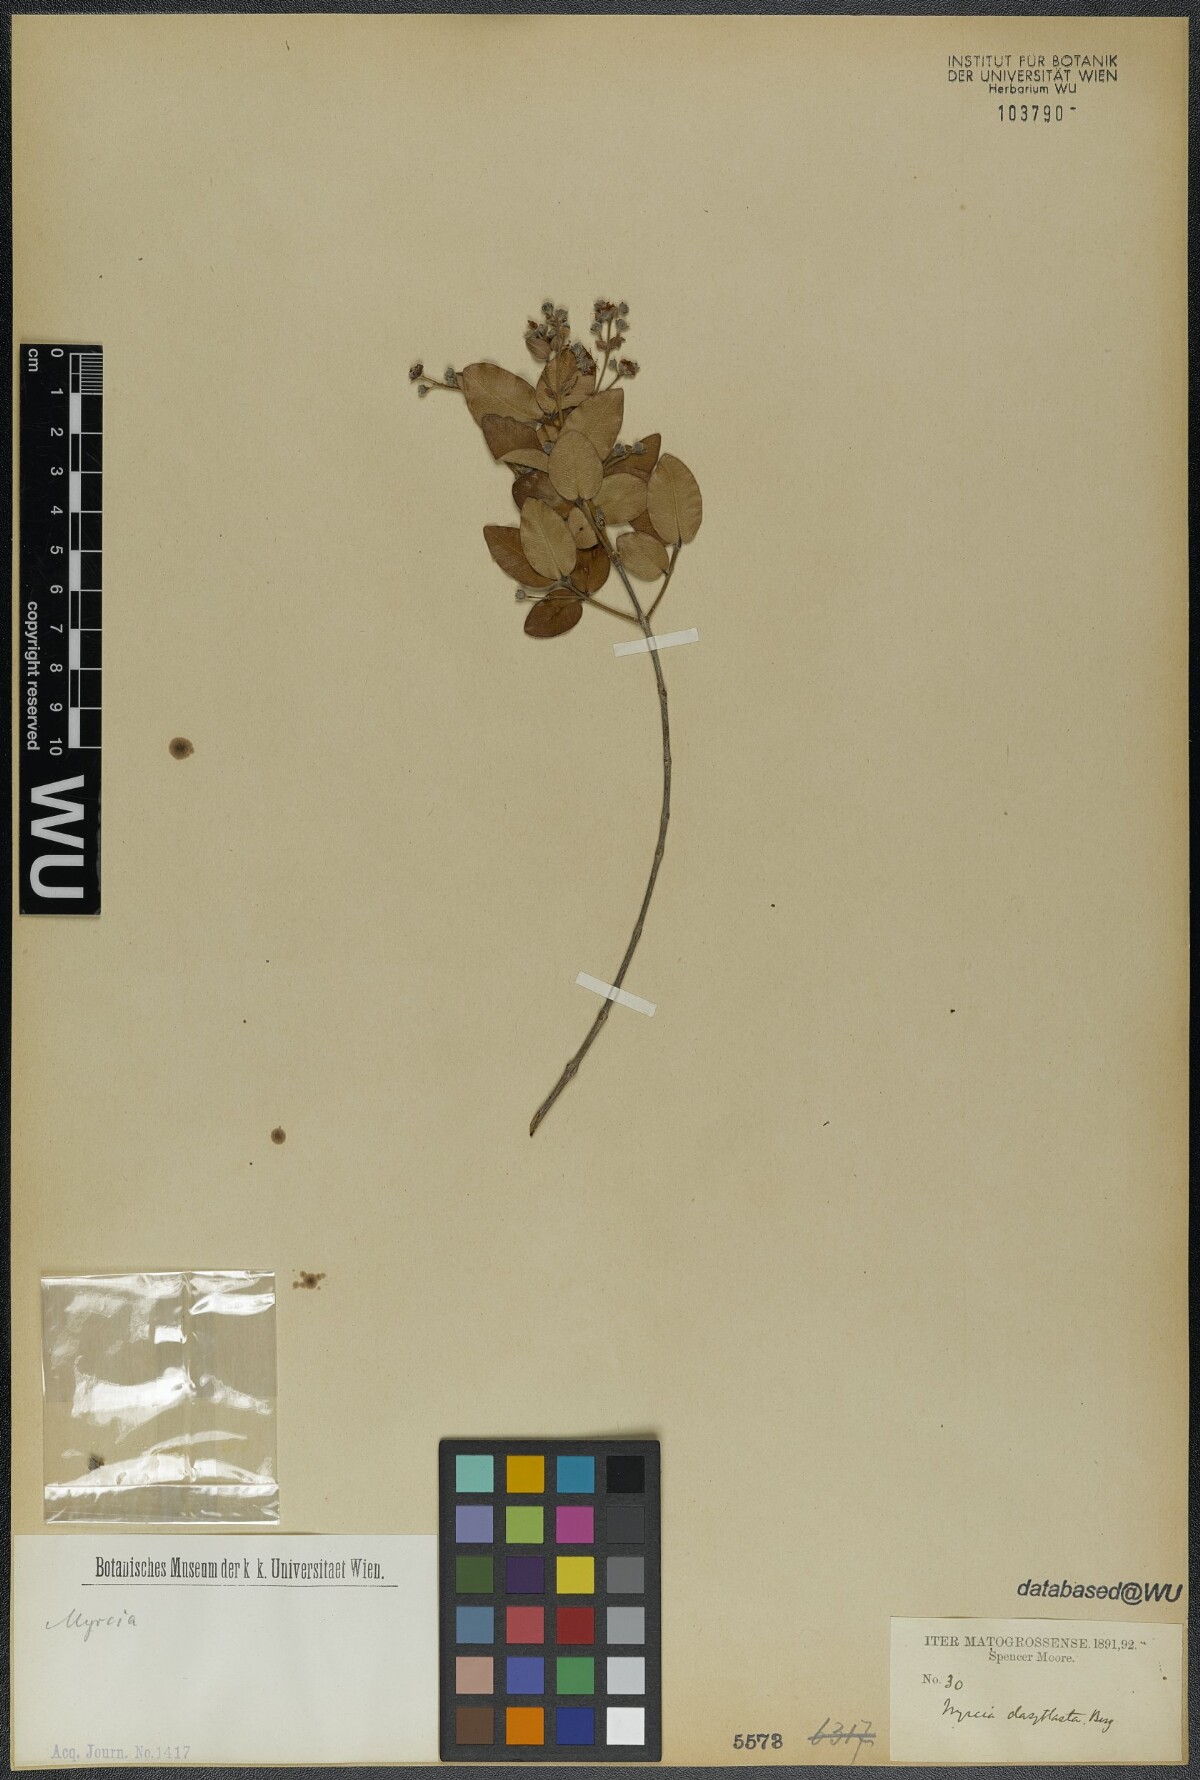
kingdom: Plantae
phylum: Tracheophyta
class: Magnoliopsida
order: Myrtales
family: Myrtaceae
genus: Myrcia
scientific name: Myrcia dasyblasta
